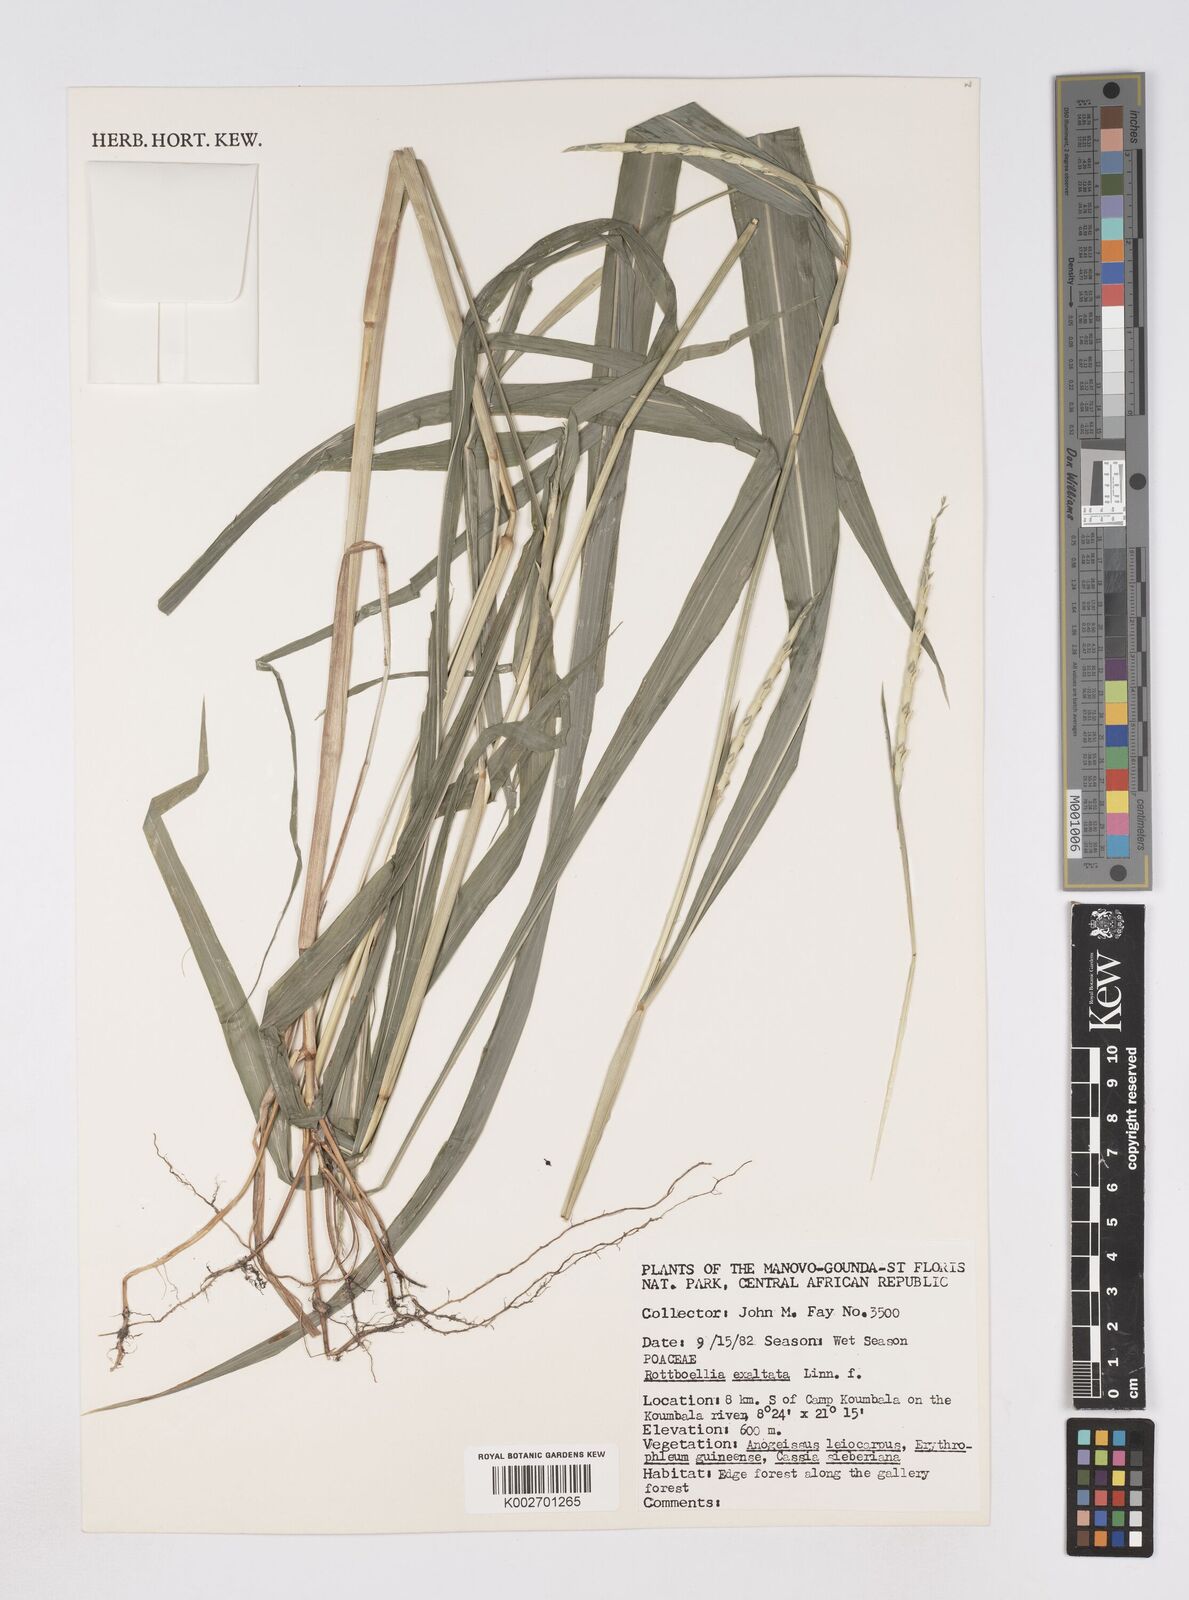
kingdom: Plantae
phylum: Tracheophyta
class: Liliopsida
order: Poales
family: Poaceae
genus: Rottboellia
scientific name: Rottboellia cochinchinensis
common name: Itchgrass
